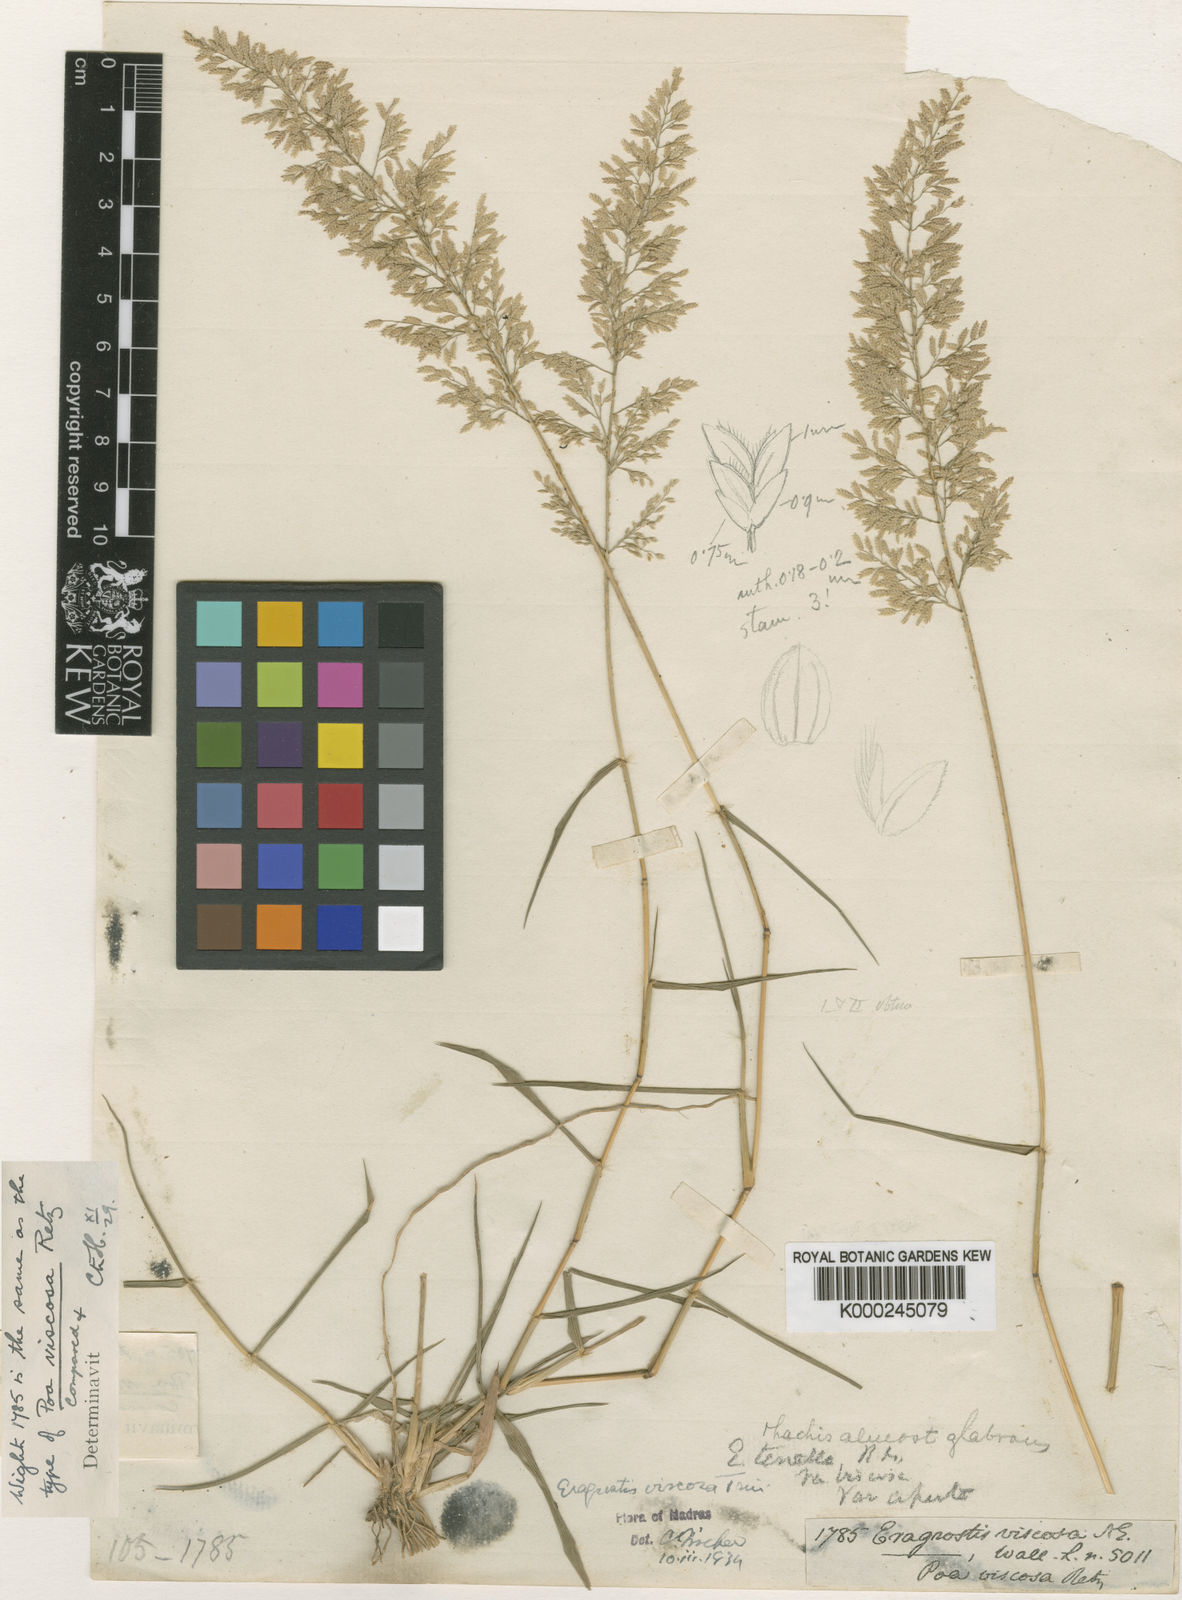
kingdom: Plantae
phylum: Tracheophyta
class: Liliopsida
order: Poales
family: Poaceae
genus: Eragrostis
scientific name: Eragrostis viscosa
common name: Sticky love grass
